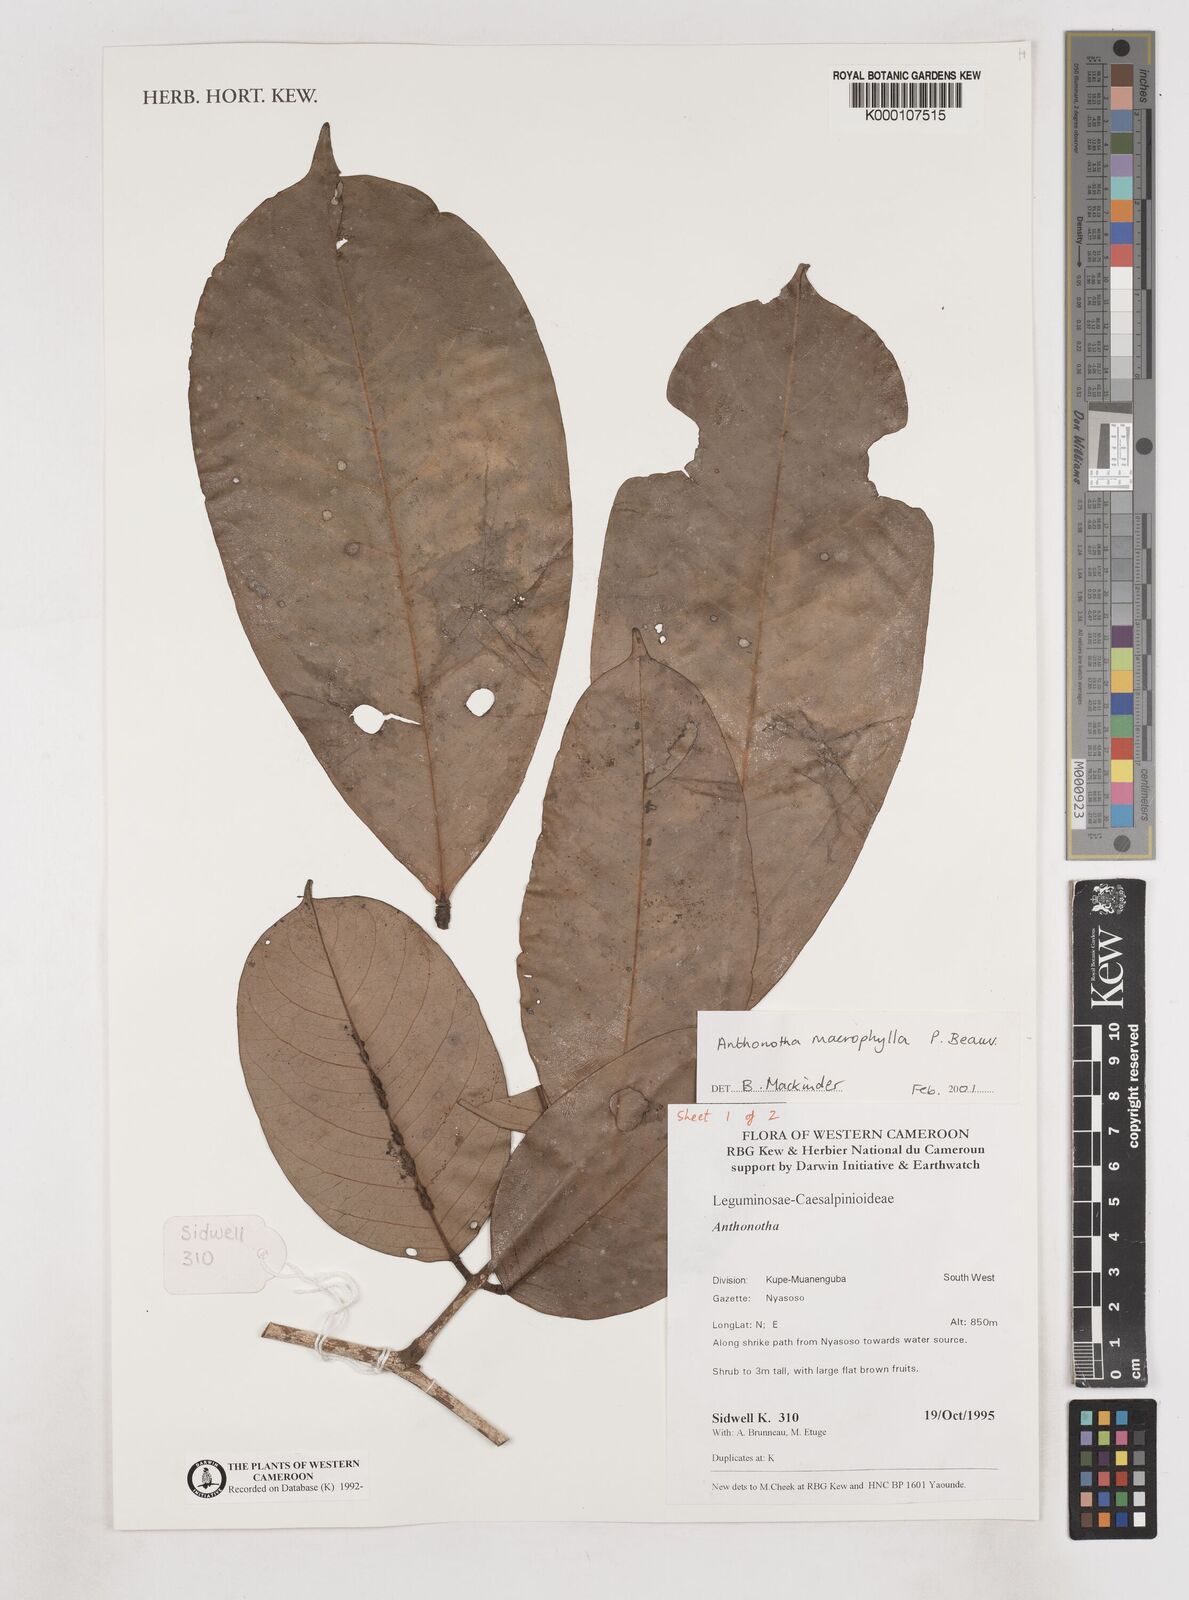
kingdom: Plantae
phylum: Tracheophyta
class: Magnoliopsida
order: Fabales
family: Fabaceae
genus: Anthonotha
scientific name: Anthonotha macrophylla
